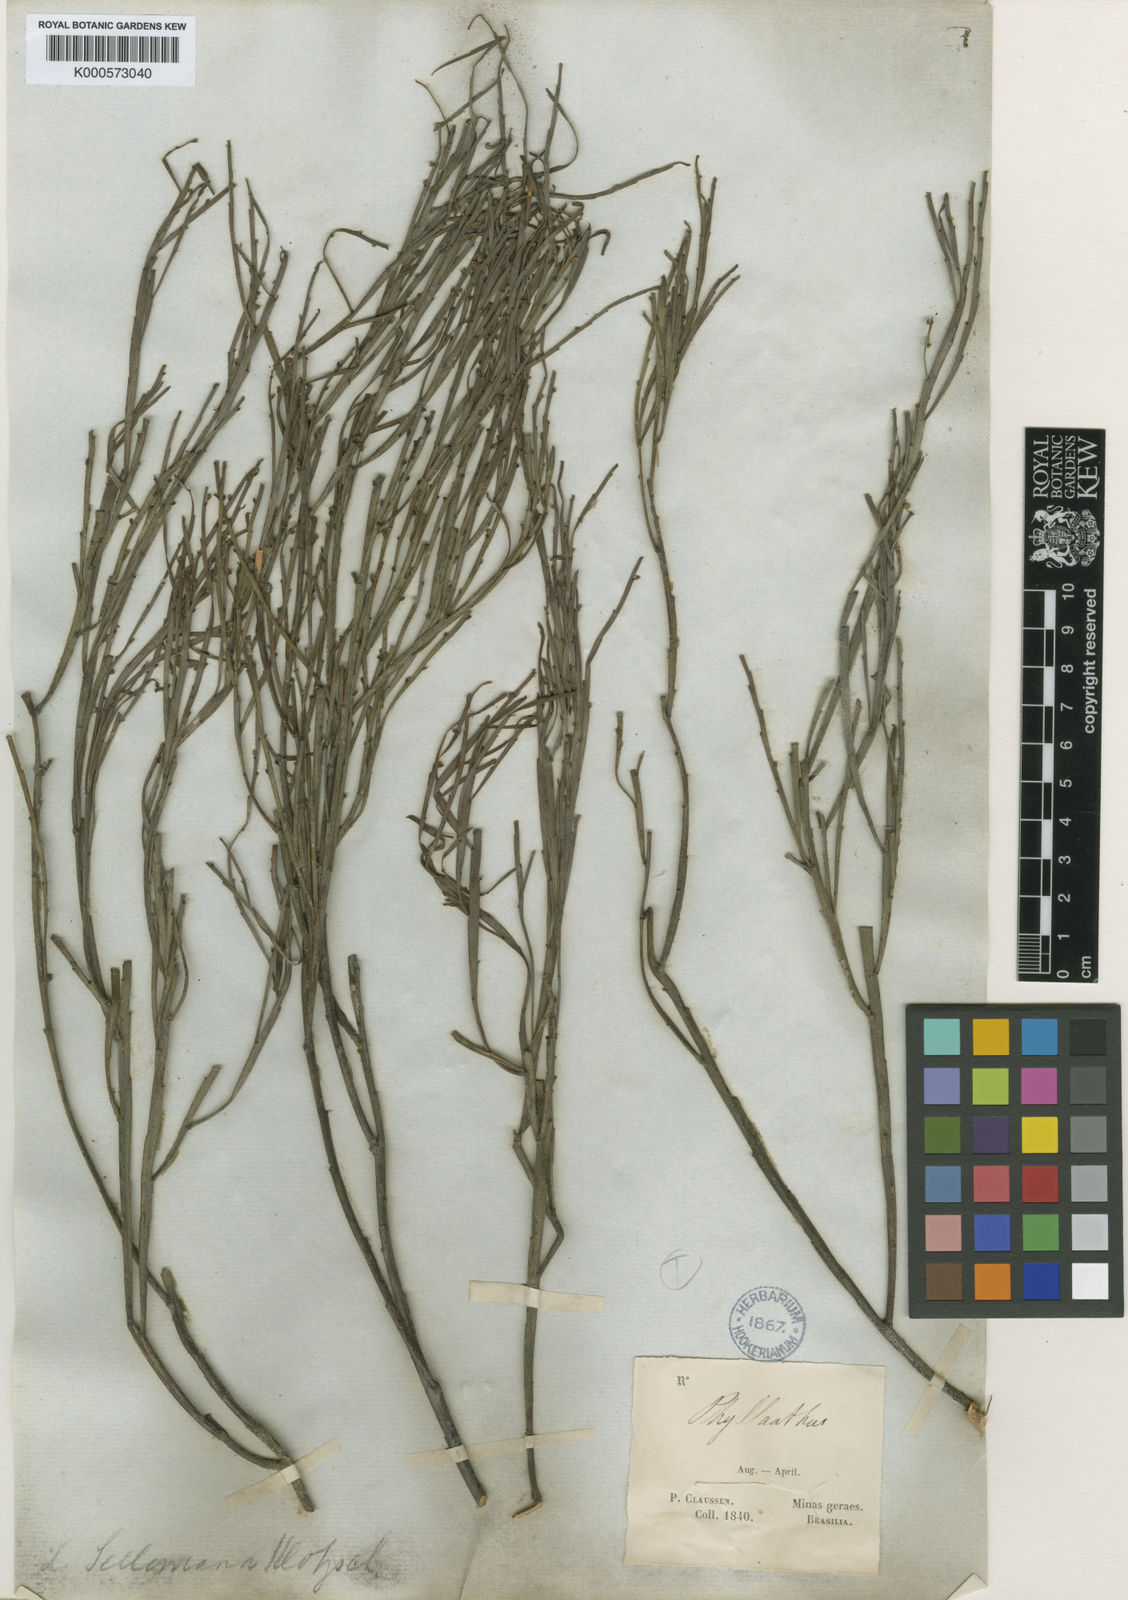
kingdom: Plantae
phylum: Tracheophyta
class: Magnoliopsida
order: Malpighiales
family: Phyllanthaceae
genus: Phyllanthus
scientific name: Phyllanthus
